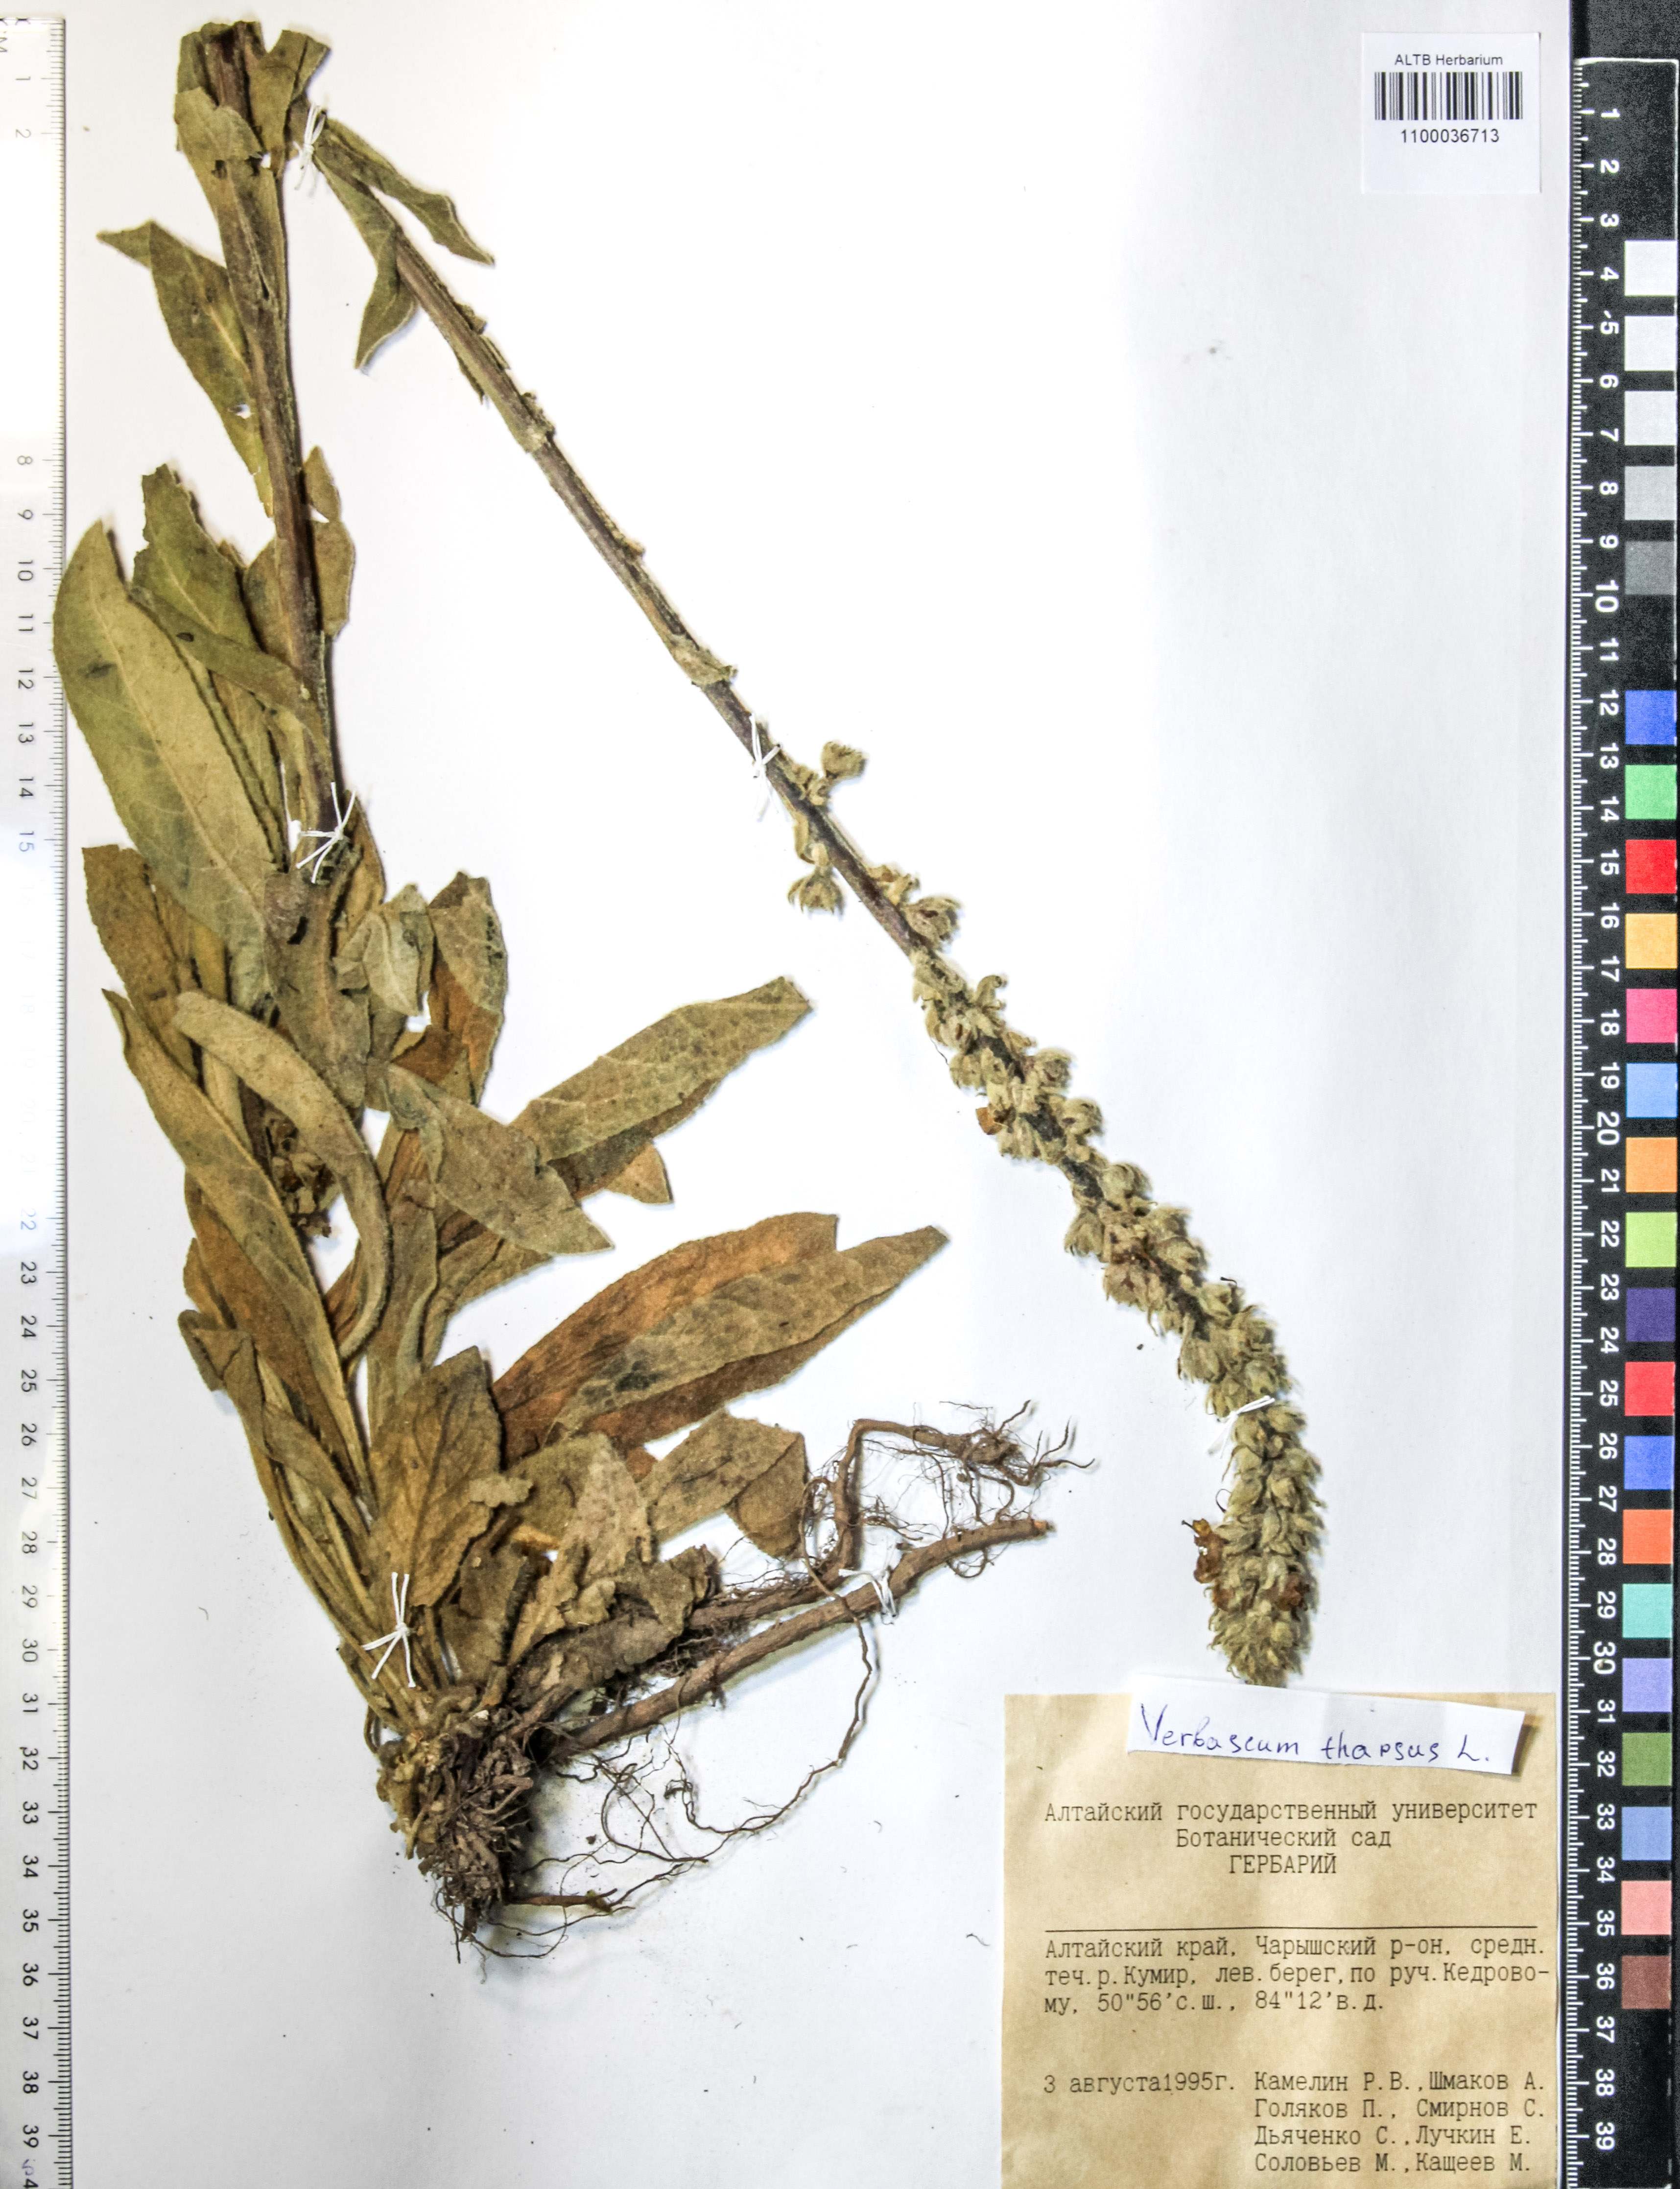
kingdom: Plantae
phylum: Tracheophyta
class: Magnoliopsida
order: Lamiales
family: Scrophulariaceae
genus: Verbascum
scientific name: Verbascum thapsus
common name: Common mullein
